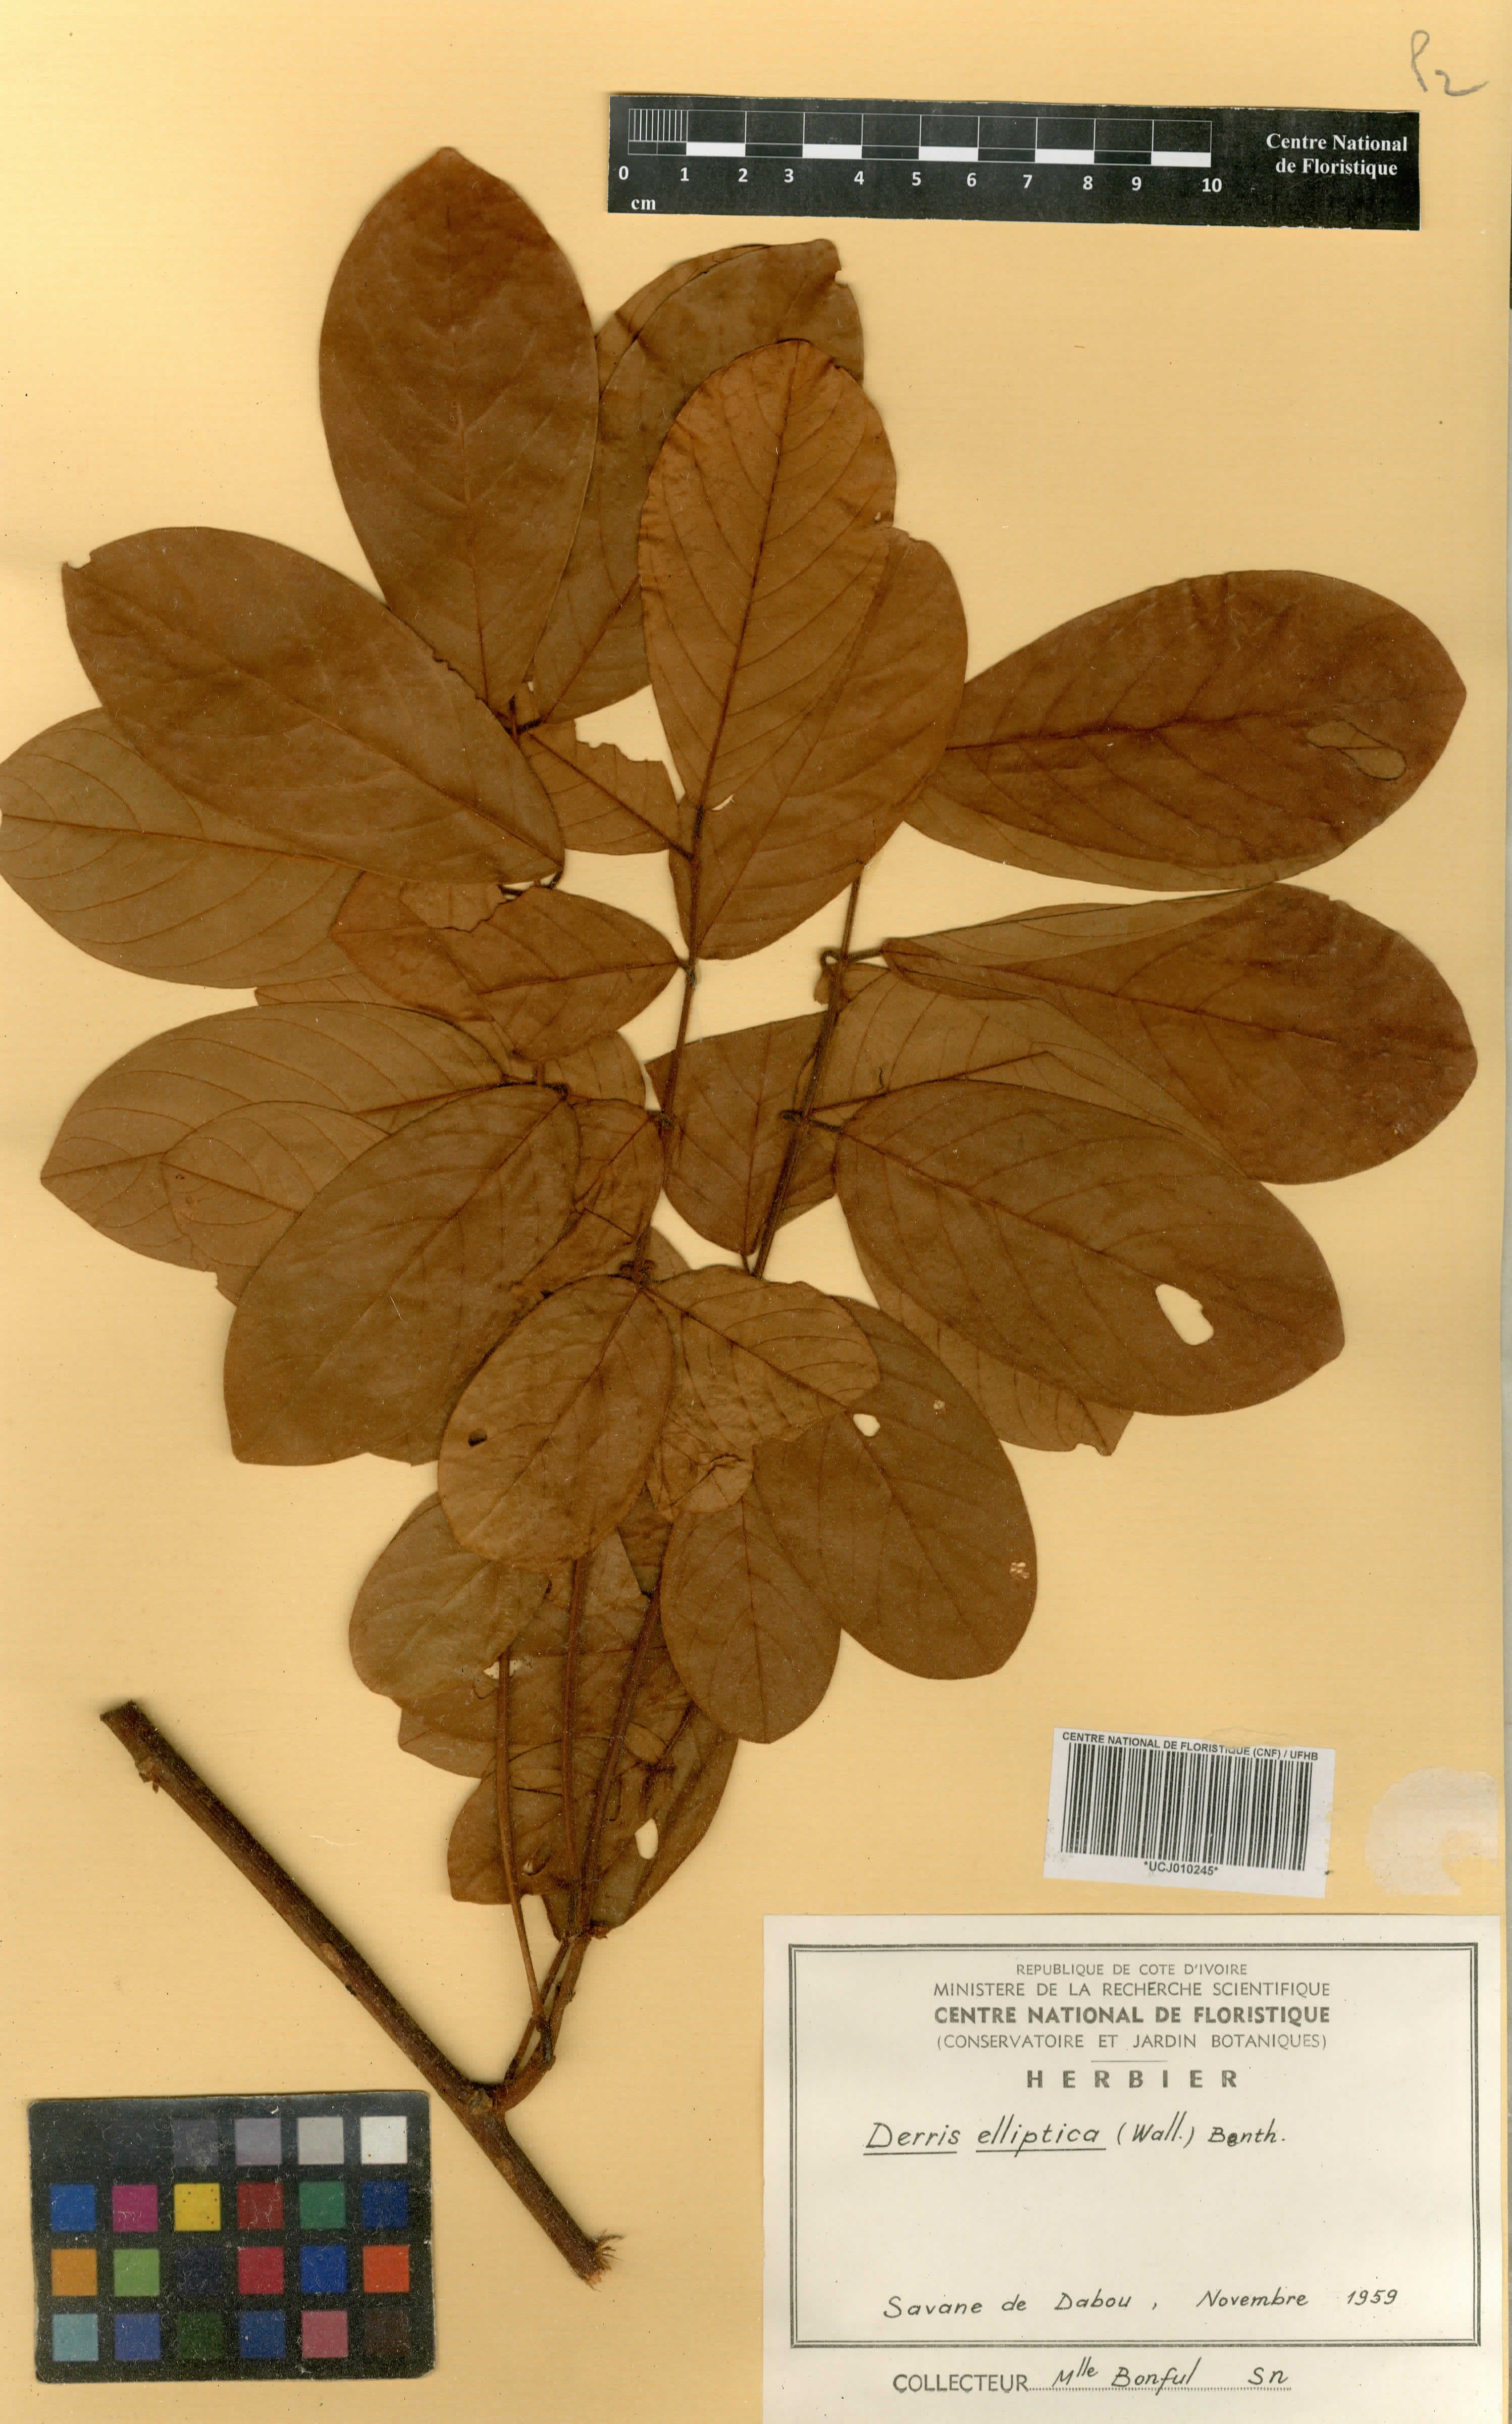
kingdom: Plantae
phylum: Tracheophyta
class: Magnoliopsida
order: Fabales
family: Fabaceae
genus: Derris
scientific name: Derris elliptica
